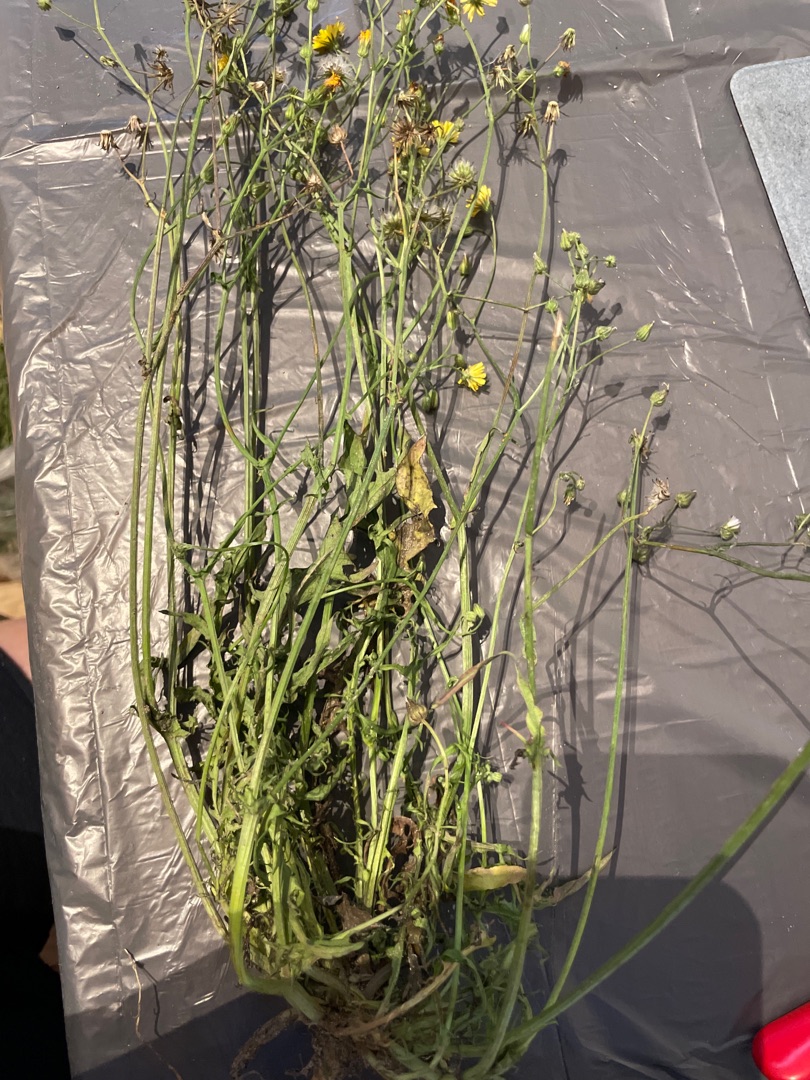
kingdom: Plantae
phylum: Tracheophyta
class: Magnoliopsida
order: Asterales
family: Asteraceae
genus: Crepis
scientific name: Crepis capillaris
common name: Grøn høgeskæg
